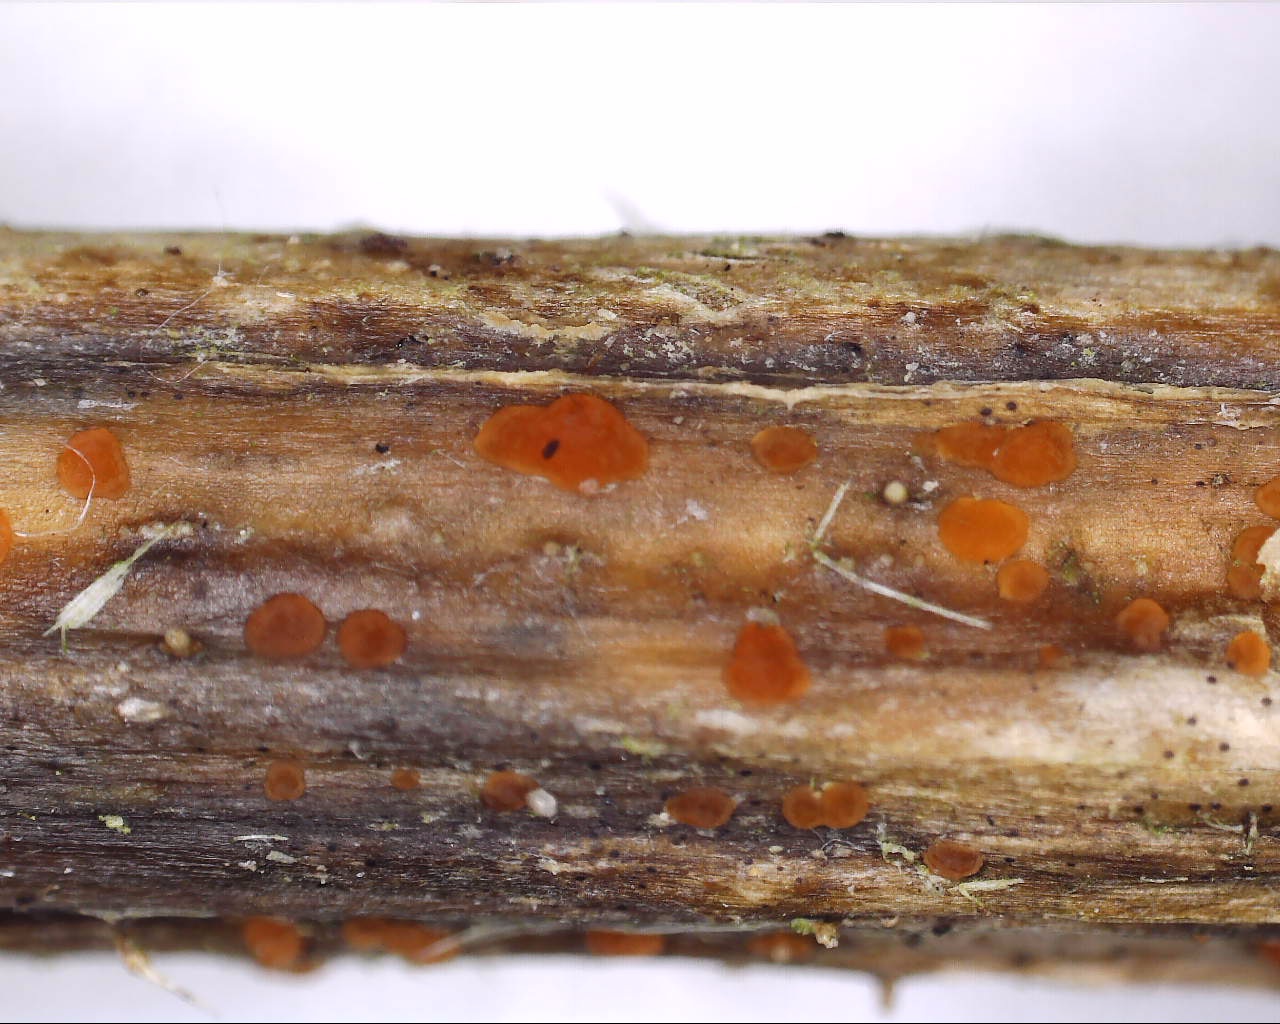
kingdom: Fungi
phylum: Ascomycota
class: Leotiomycetes
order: Helotiales
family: Calloriaceae
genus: Calloria
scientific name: Calloria urticae
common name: nælde-orangeskive
